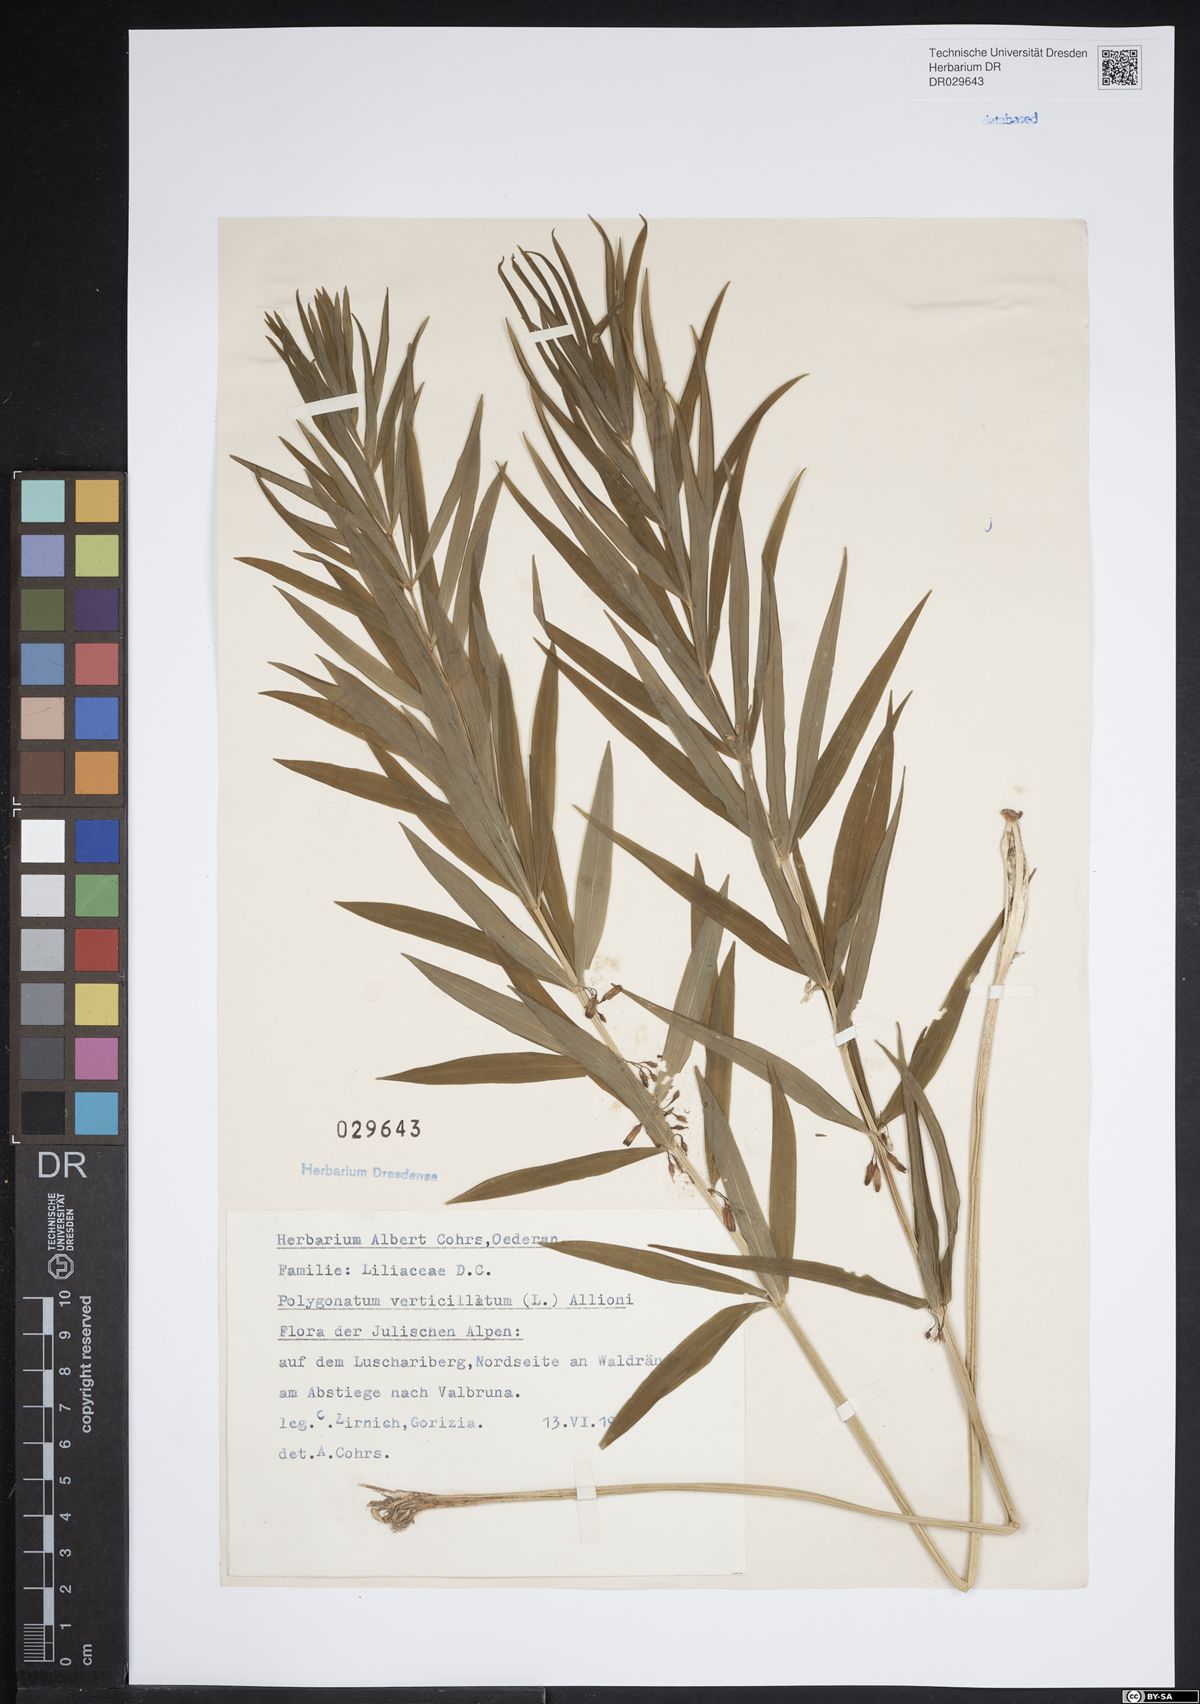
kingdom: Plantae
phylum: Tracheophyta
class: Liliopsida
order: Asparagales
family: Asparagaceae
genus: Polygonatum
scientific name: Polygonatum verticillatum
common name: Whorled solomon's-seal
